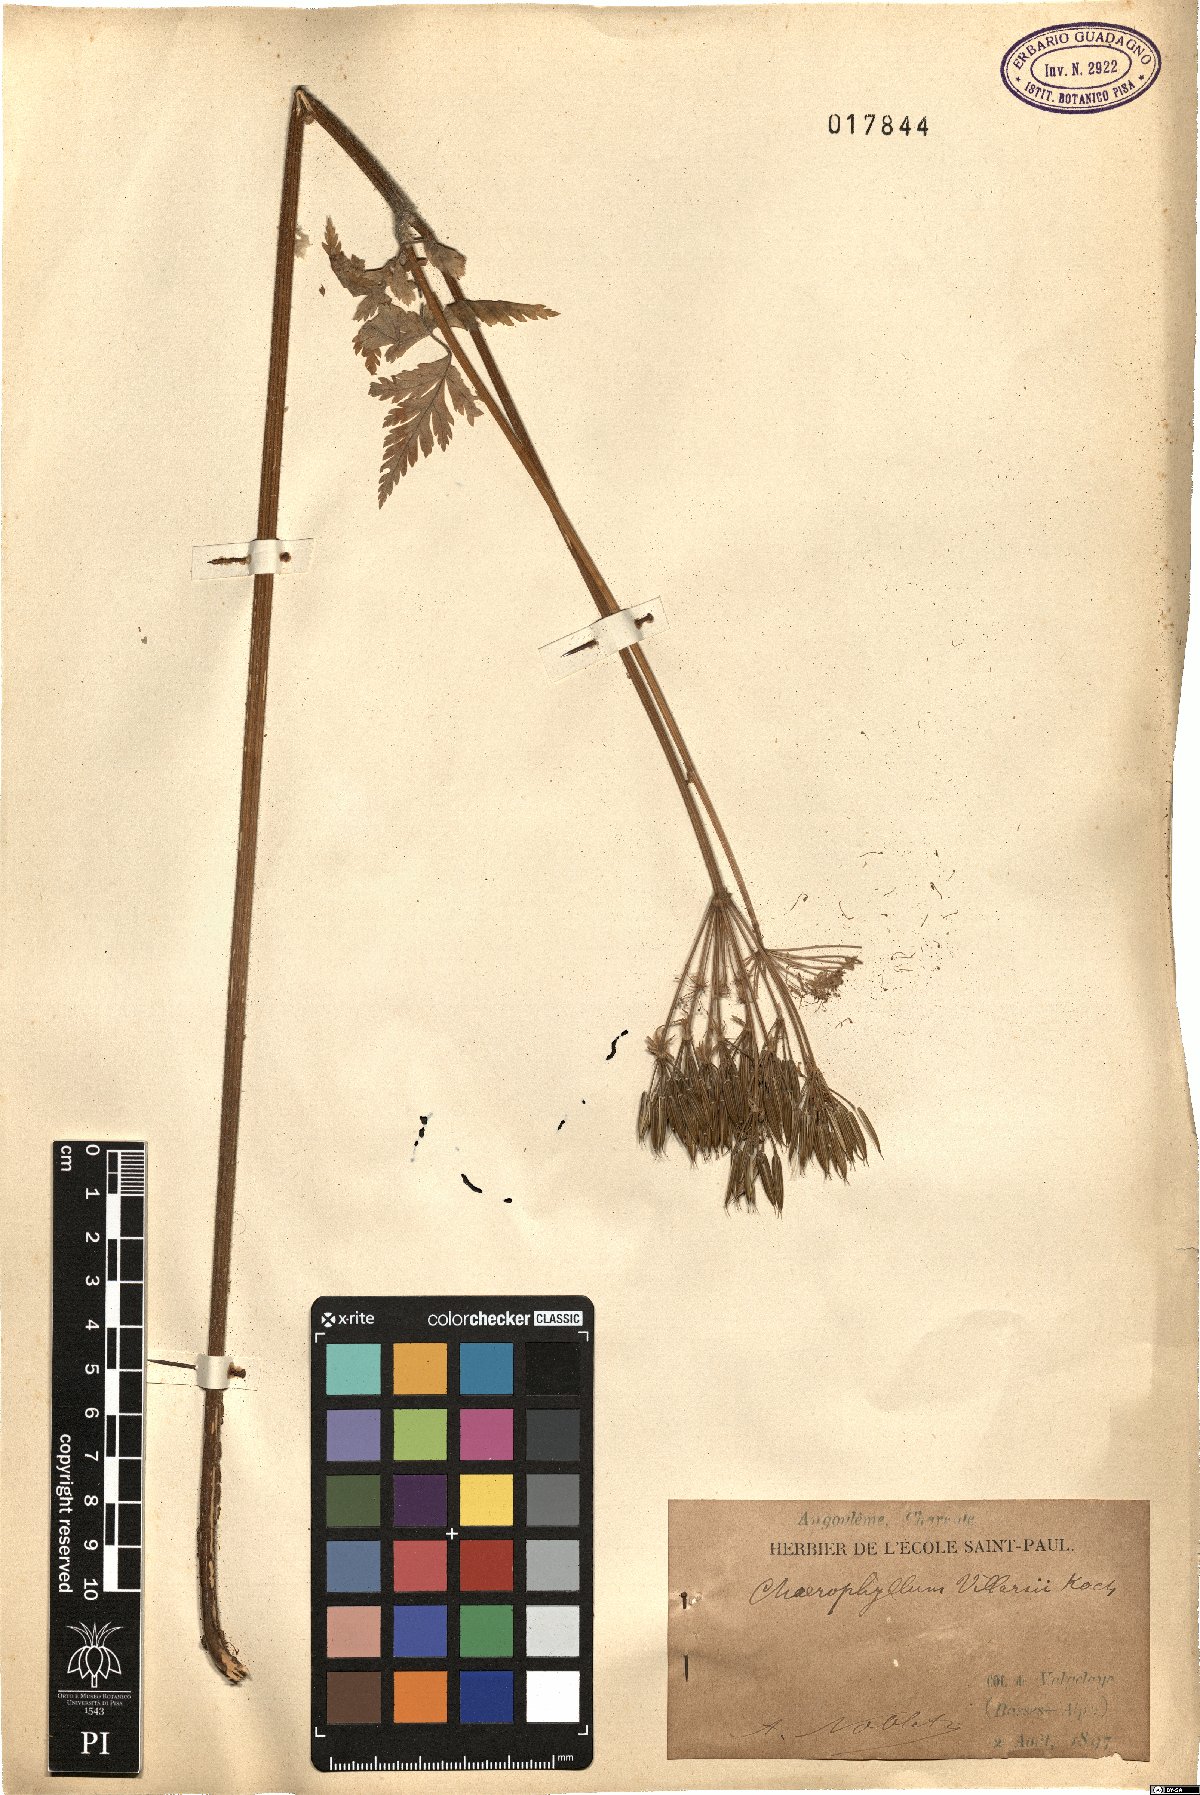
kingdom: Plantae
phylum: Tracheophyta
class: Magnoliopsida
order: Apiales
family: Apiaceae
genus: Chaerophyllum
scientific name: Chaerophyllum villarsii
